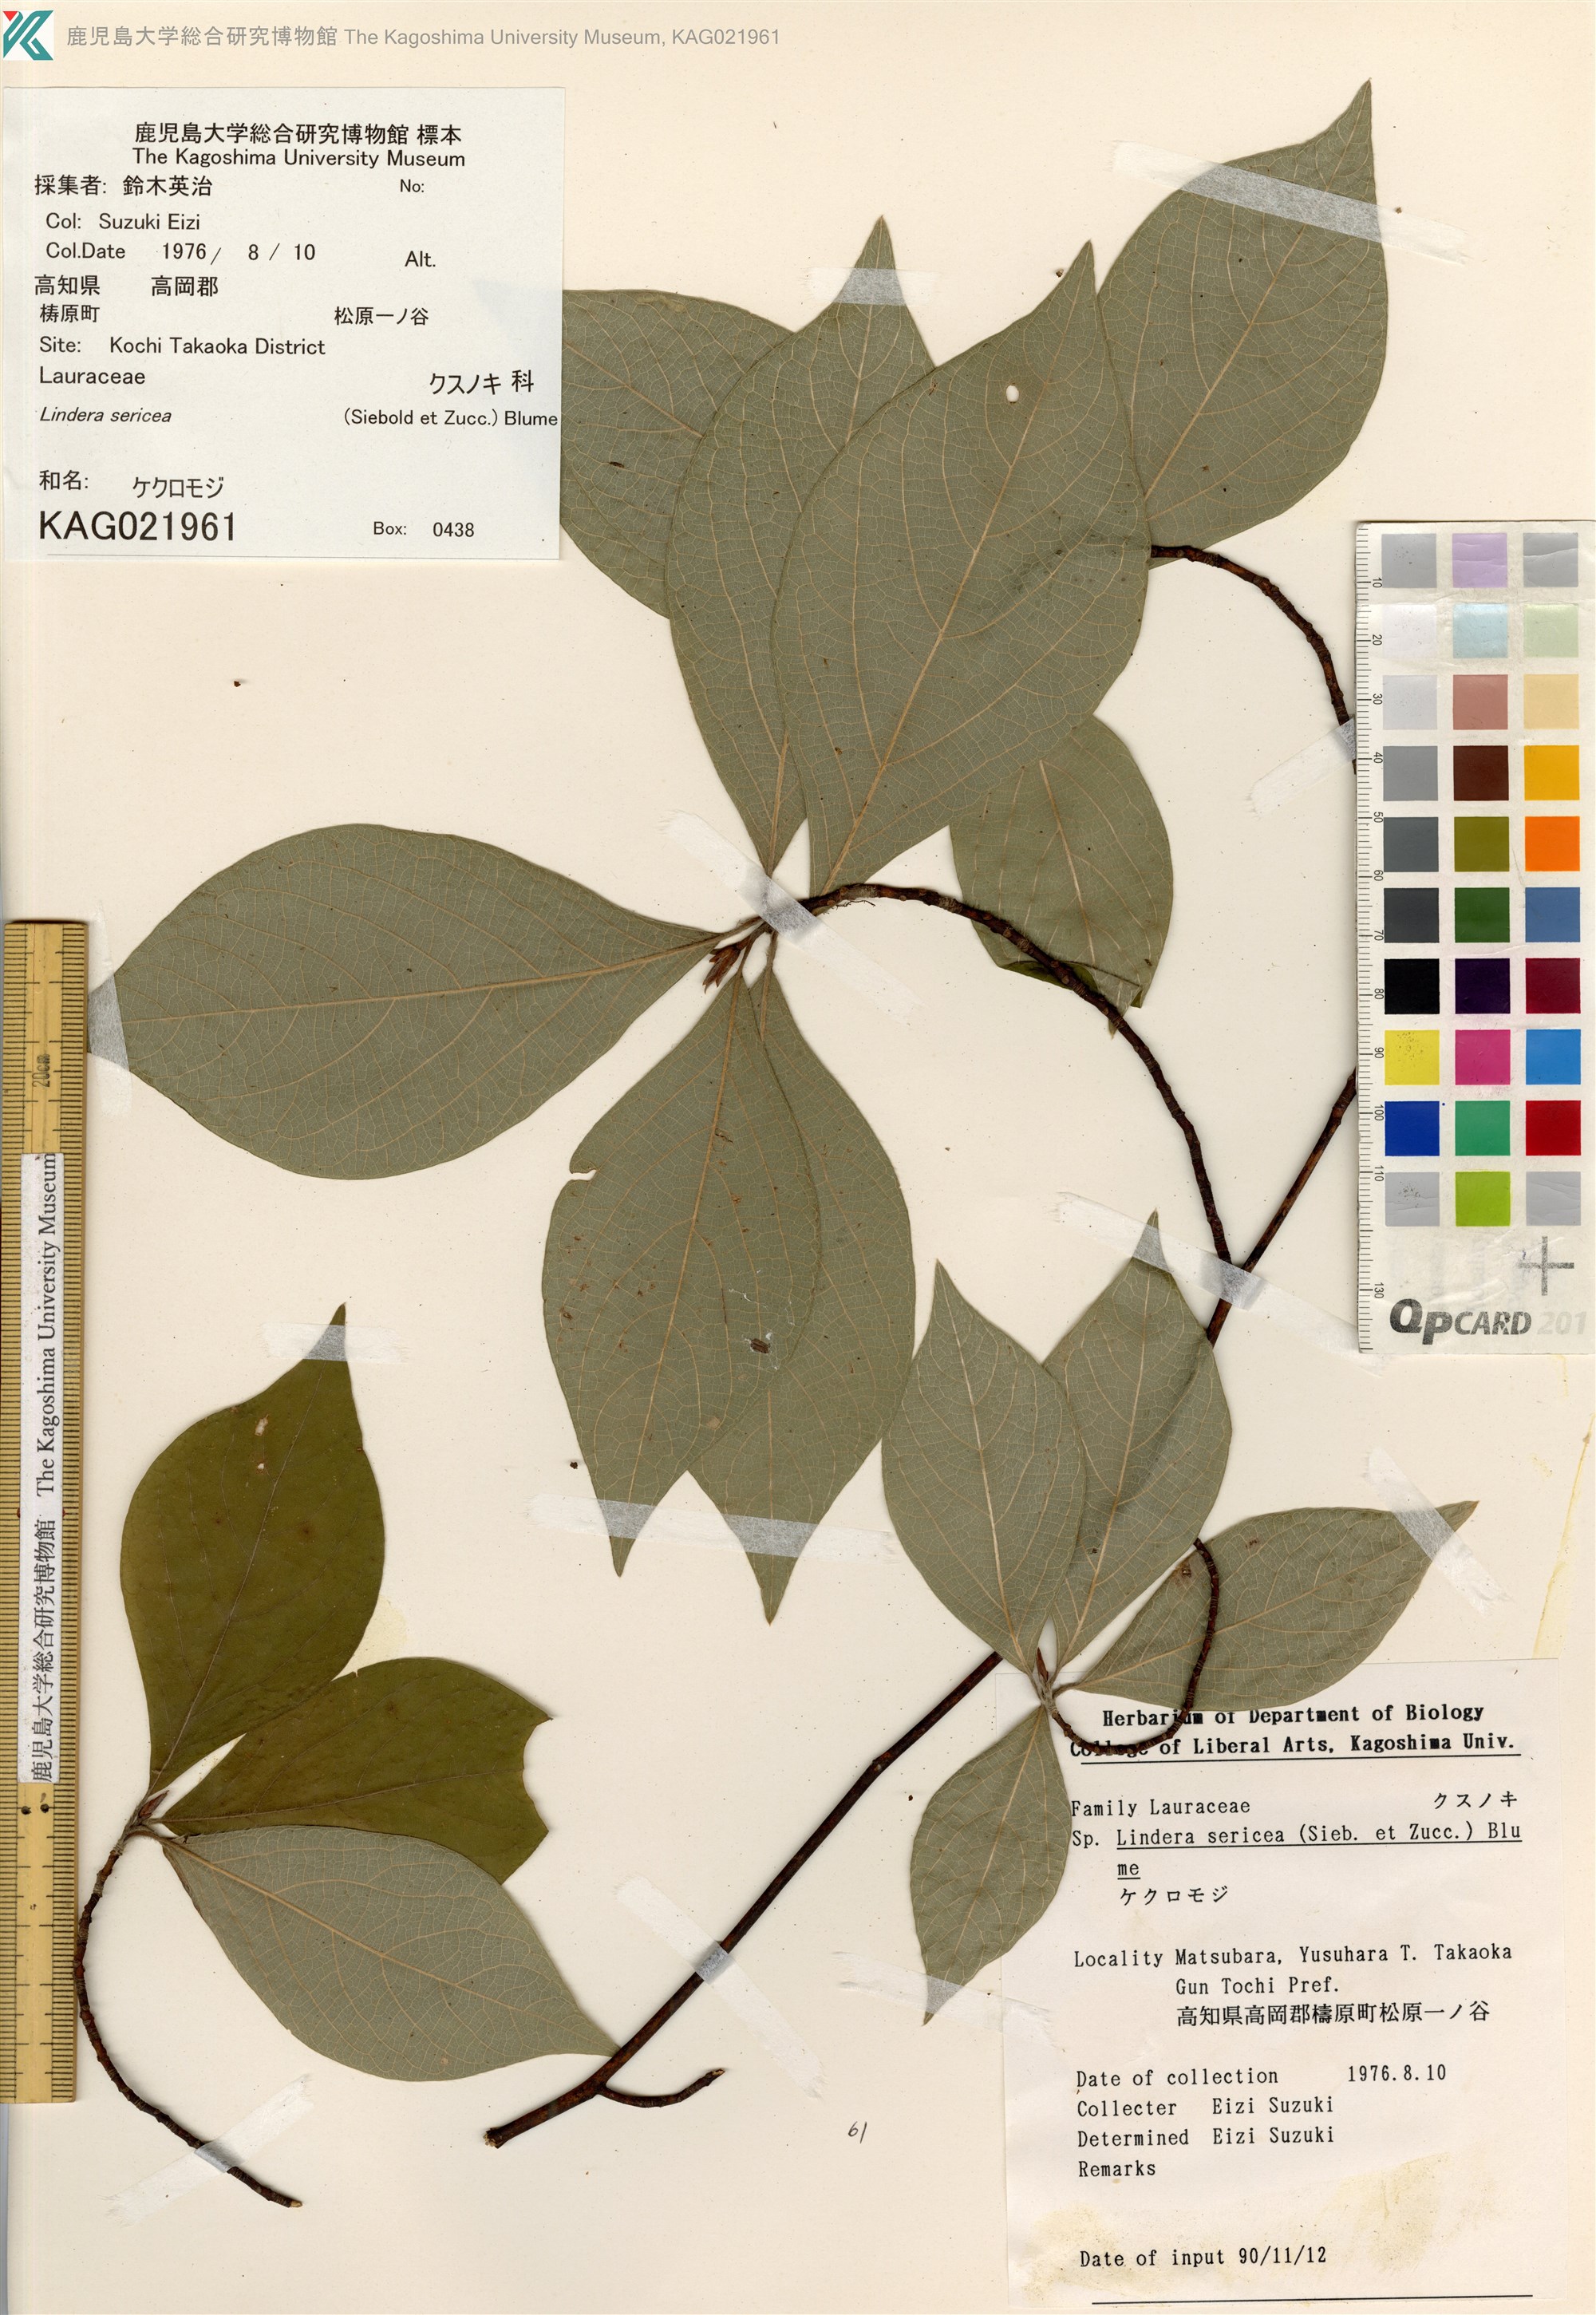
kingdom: Plantae
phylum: Tracheophyta
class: Magnoliopsida
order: Laurales
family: Lauraceae
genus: Lindera
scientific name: Lindera sericea
